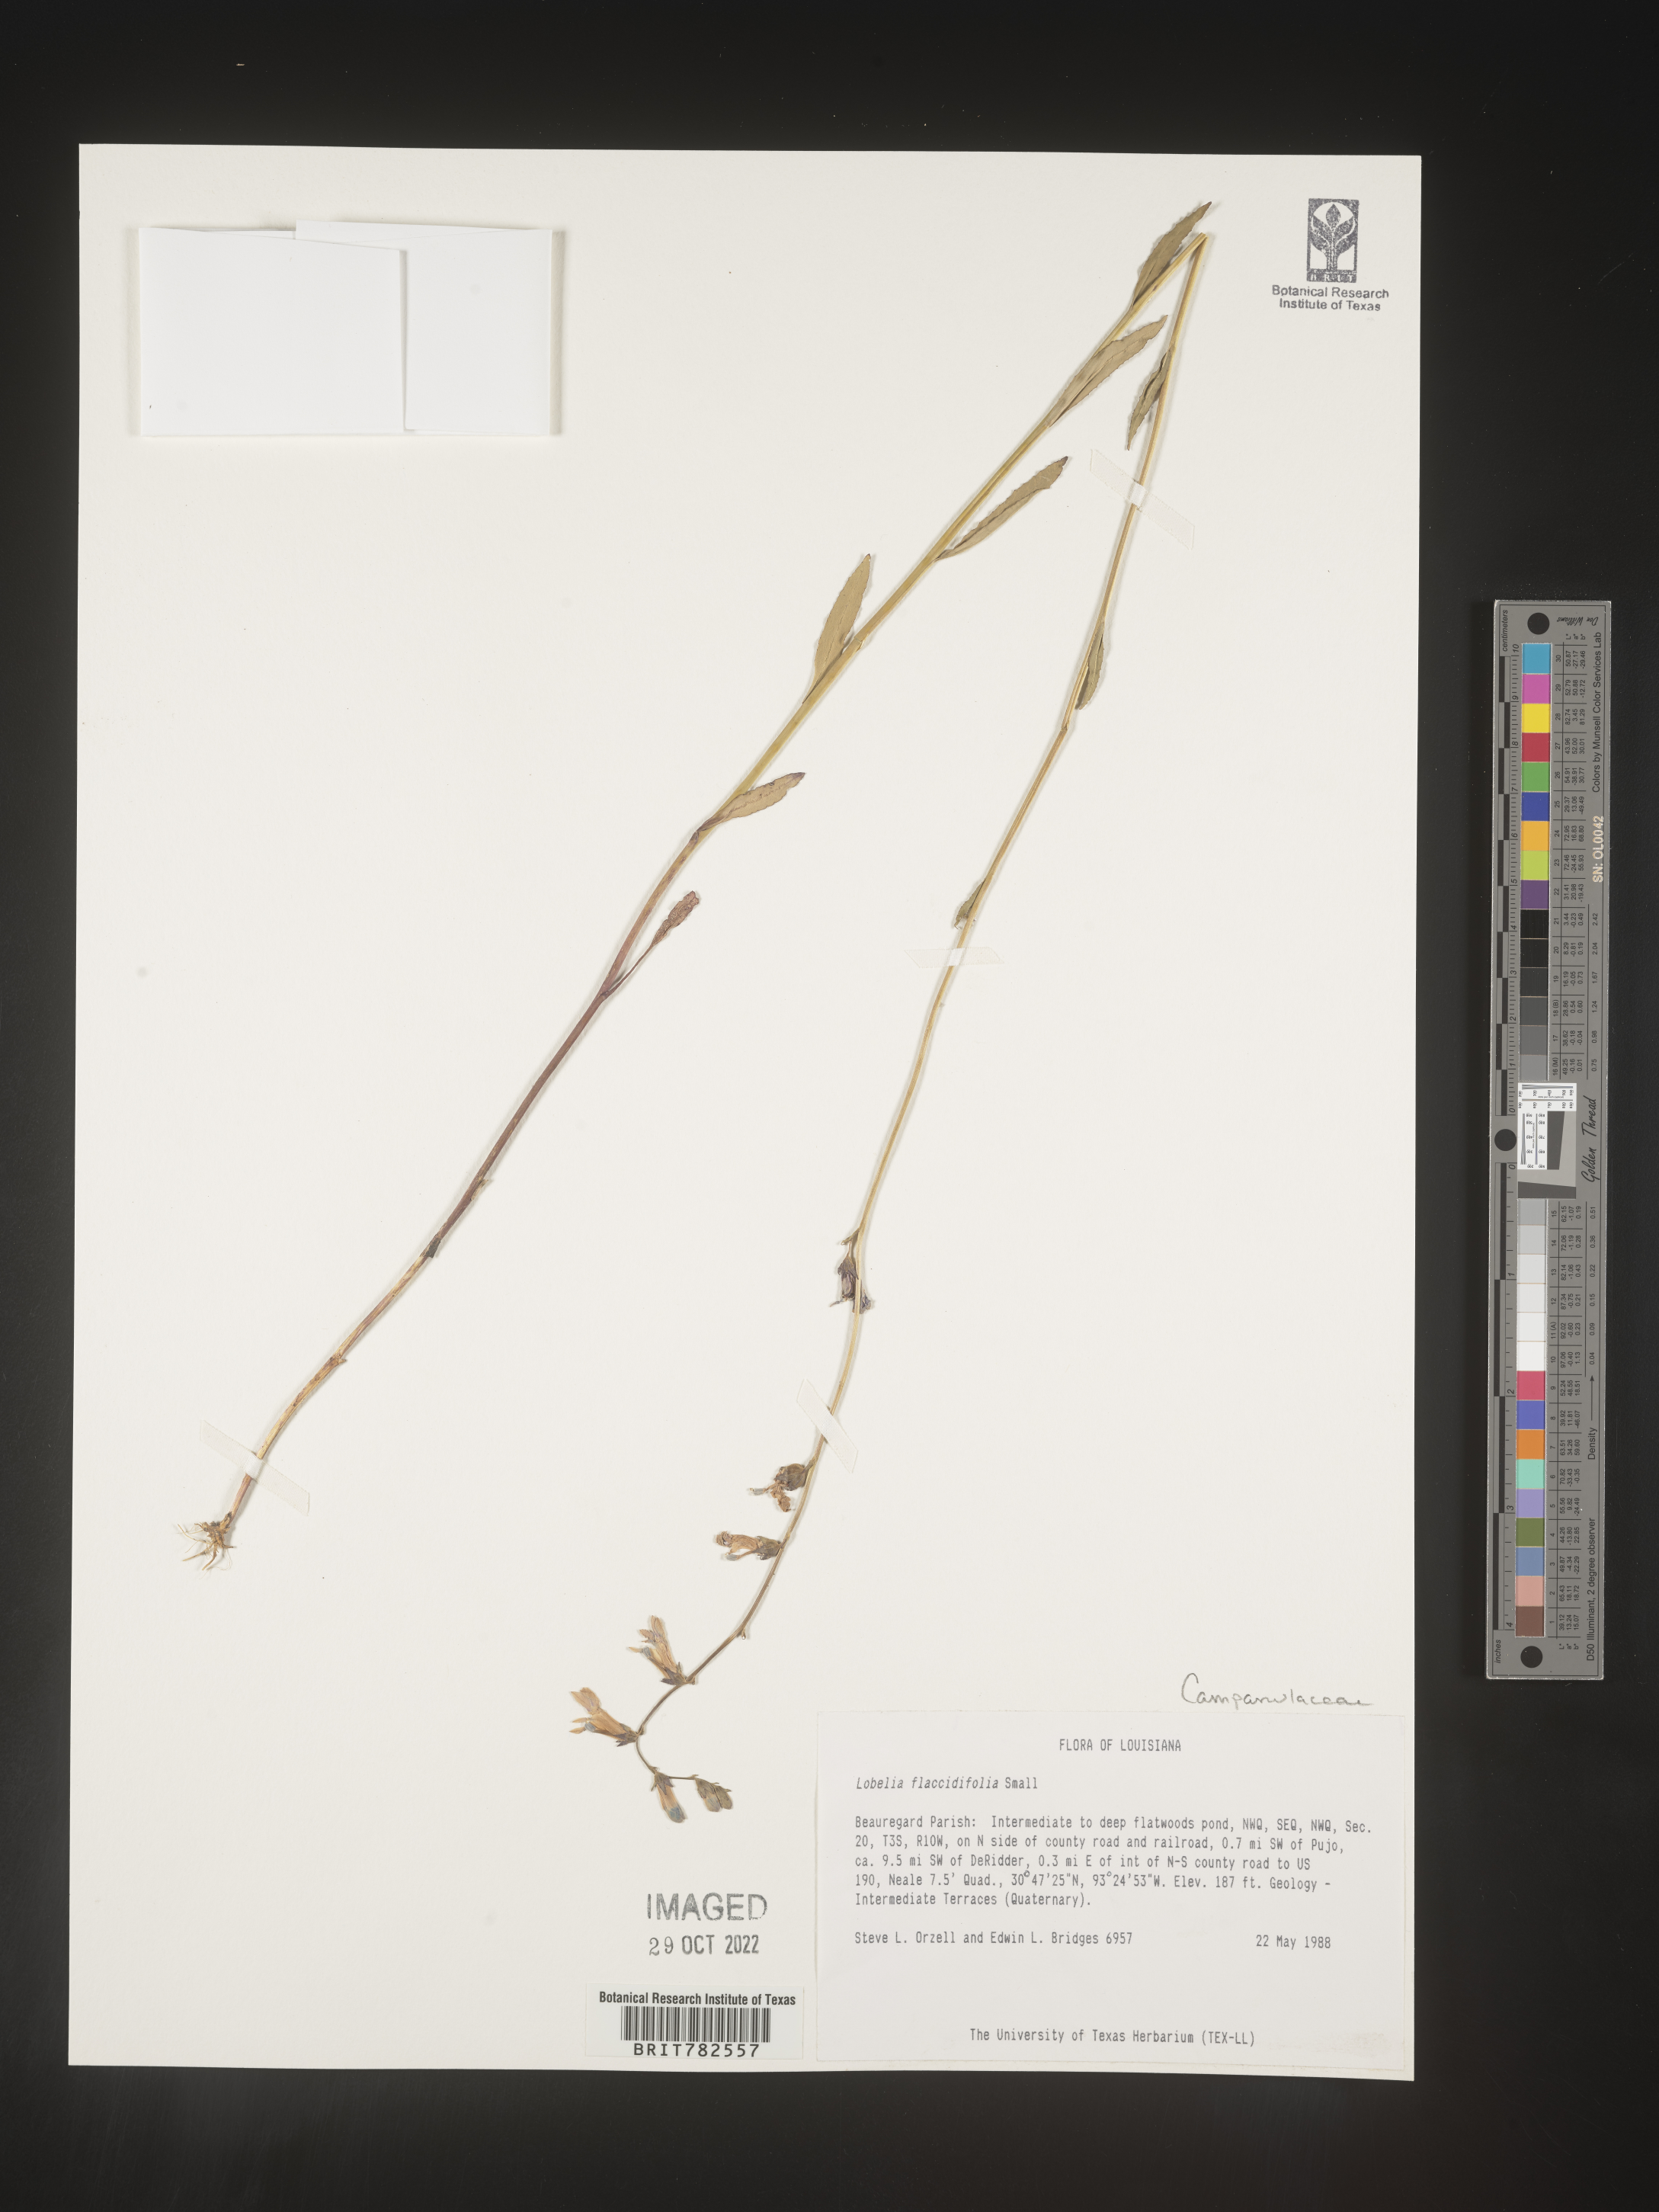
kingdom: Plantae
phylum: Tracheophyta
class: Magnoliopsida
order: Asterales
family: Campanulaceae
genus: Lobelia
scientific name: Lobelia
